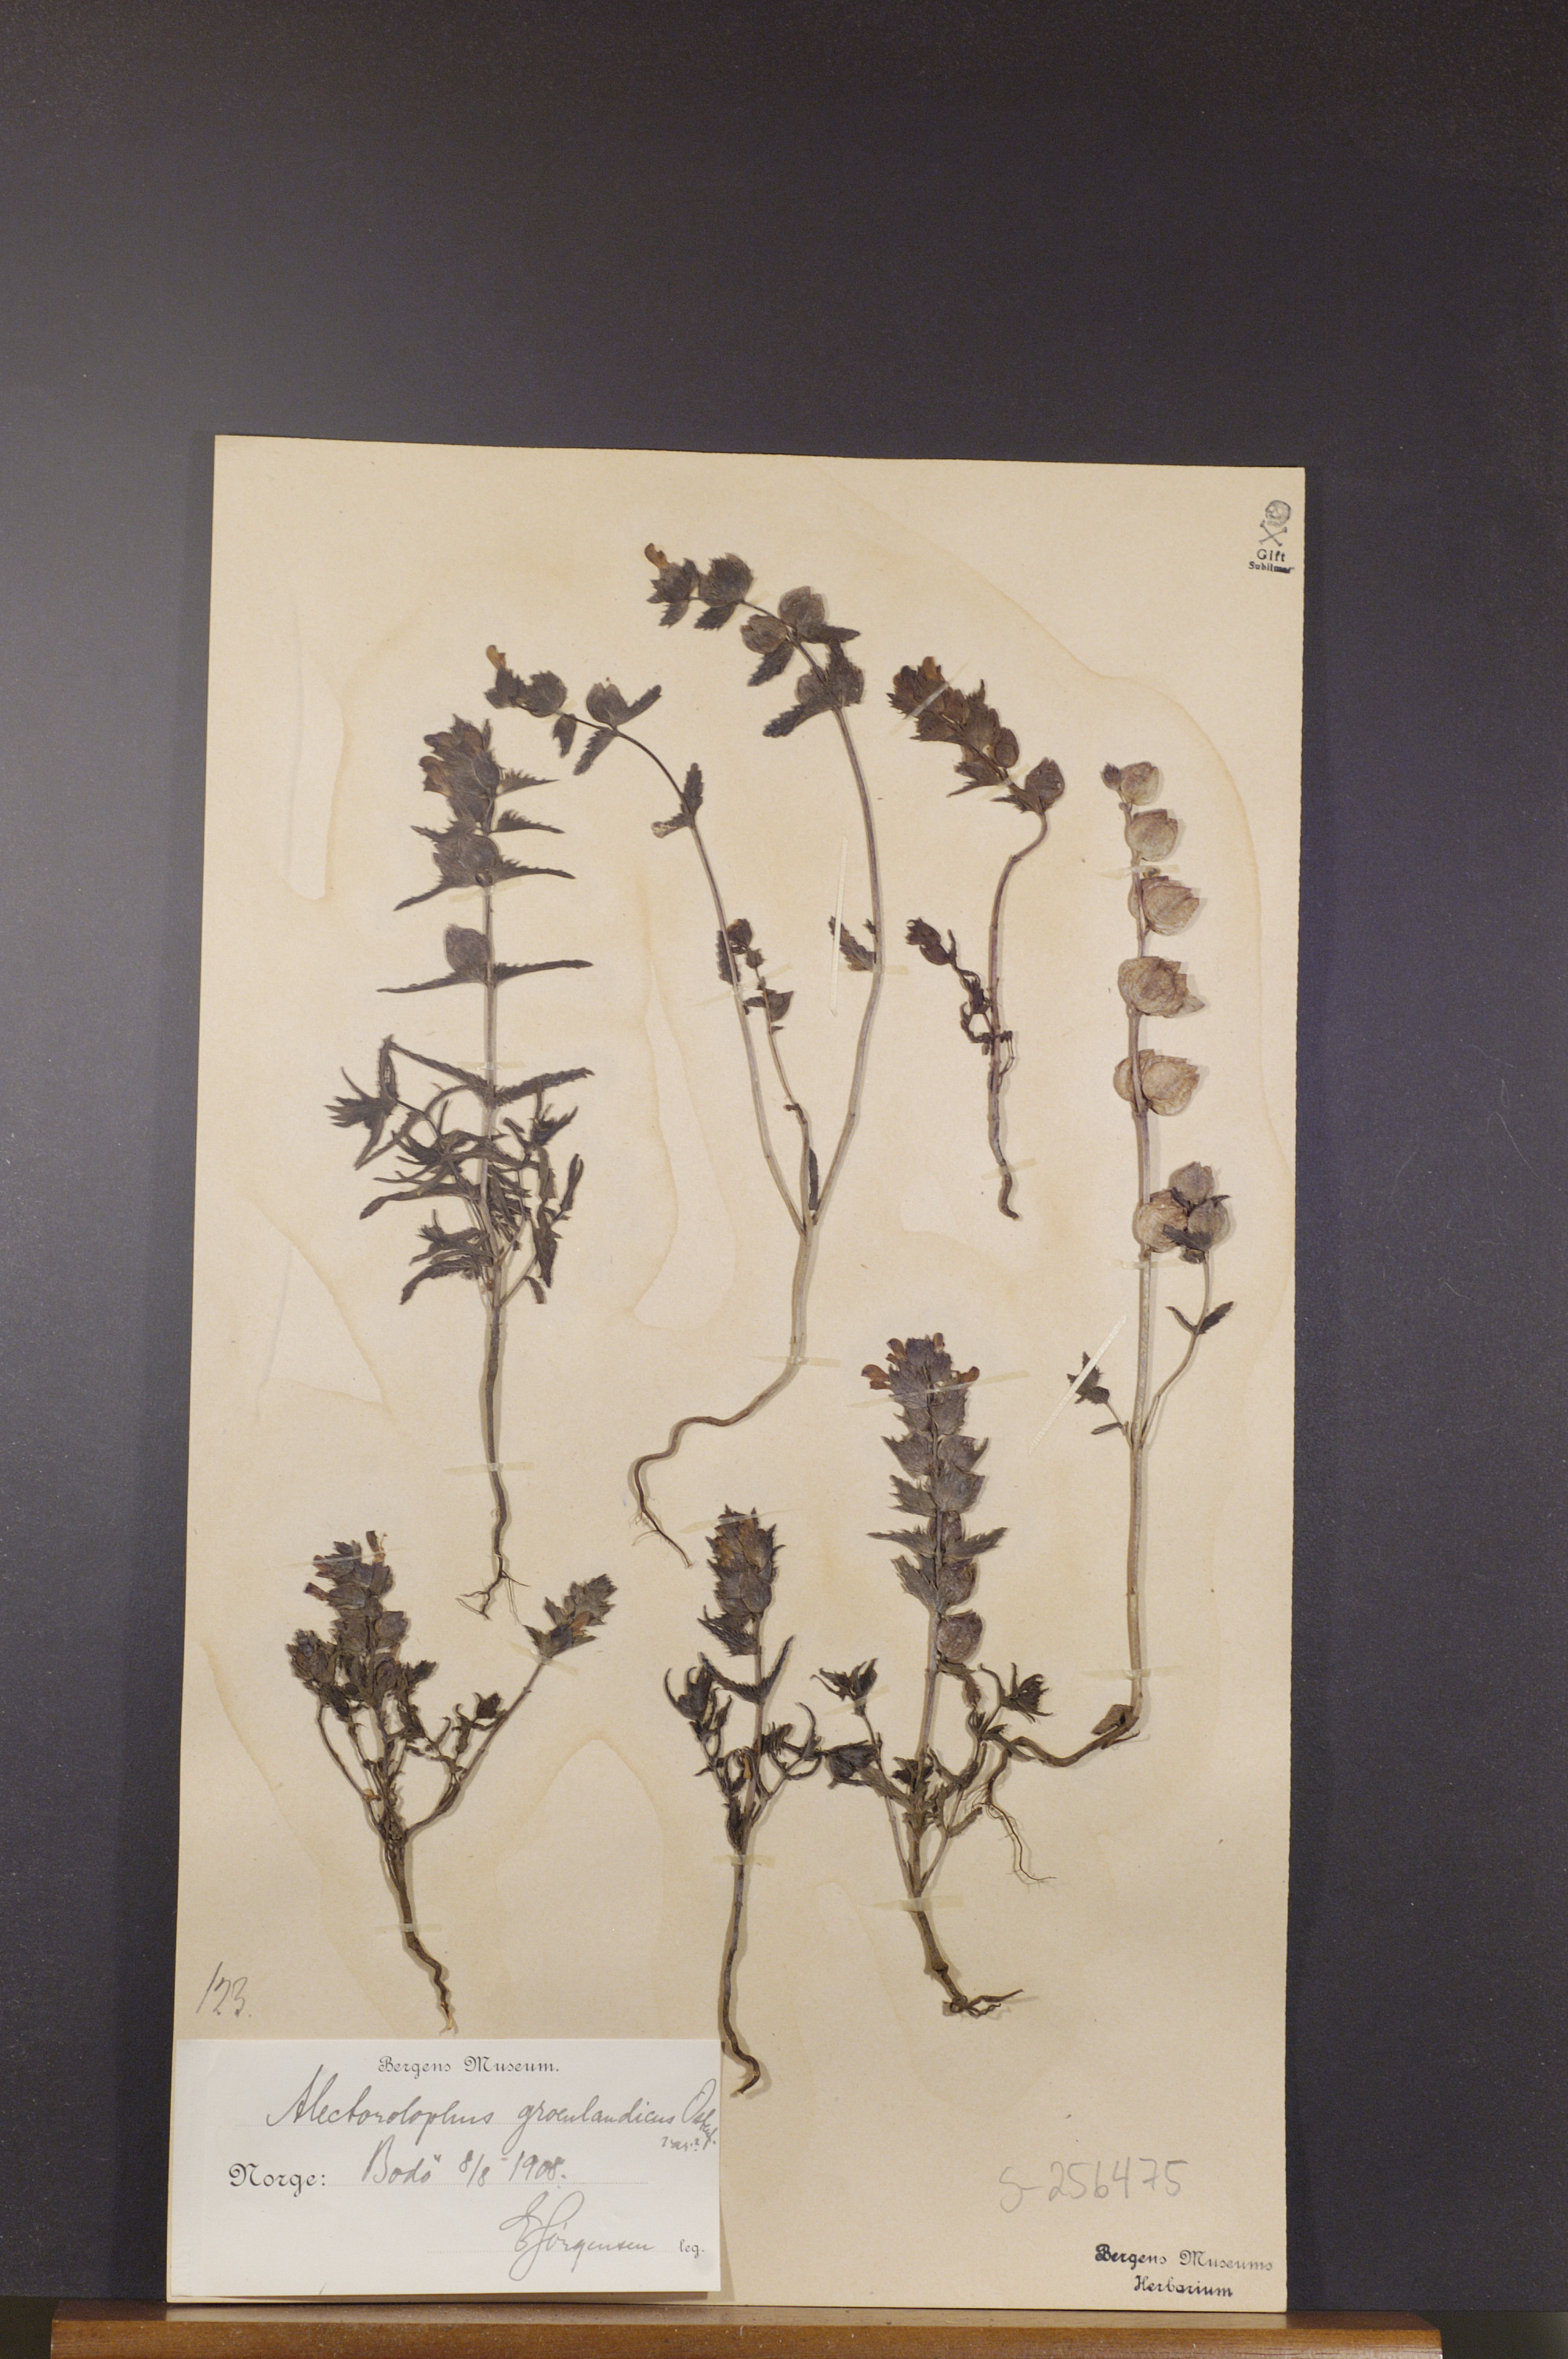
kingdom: Plantae
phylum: Tracheophyta
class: Magnoliopsida
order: Lamiales
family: Orobanchaceae
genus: Rhinanthus
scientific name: Rhinanthus groenlandicus
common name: Little yellow rattle
